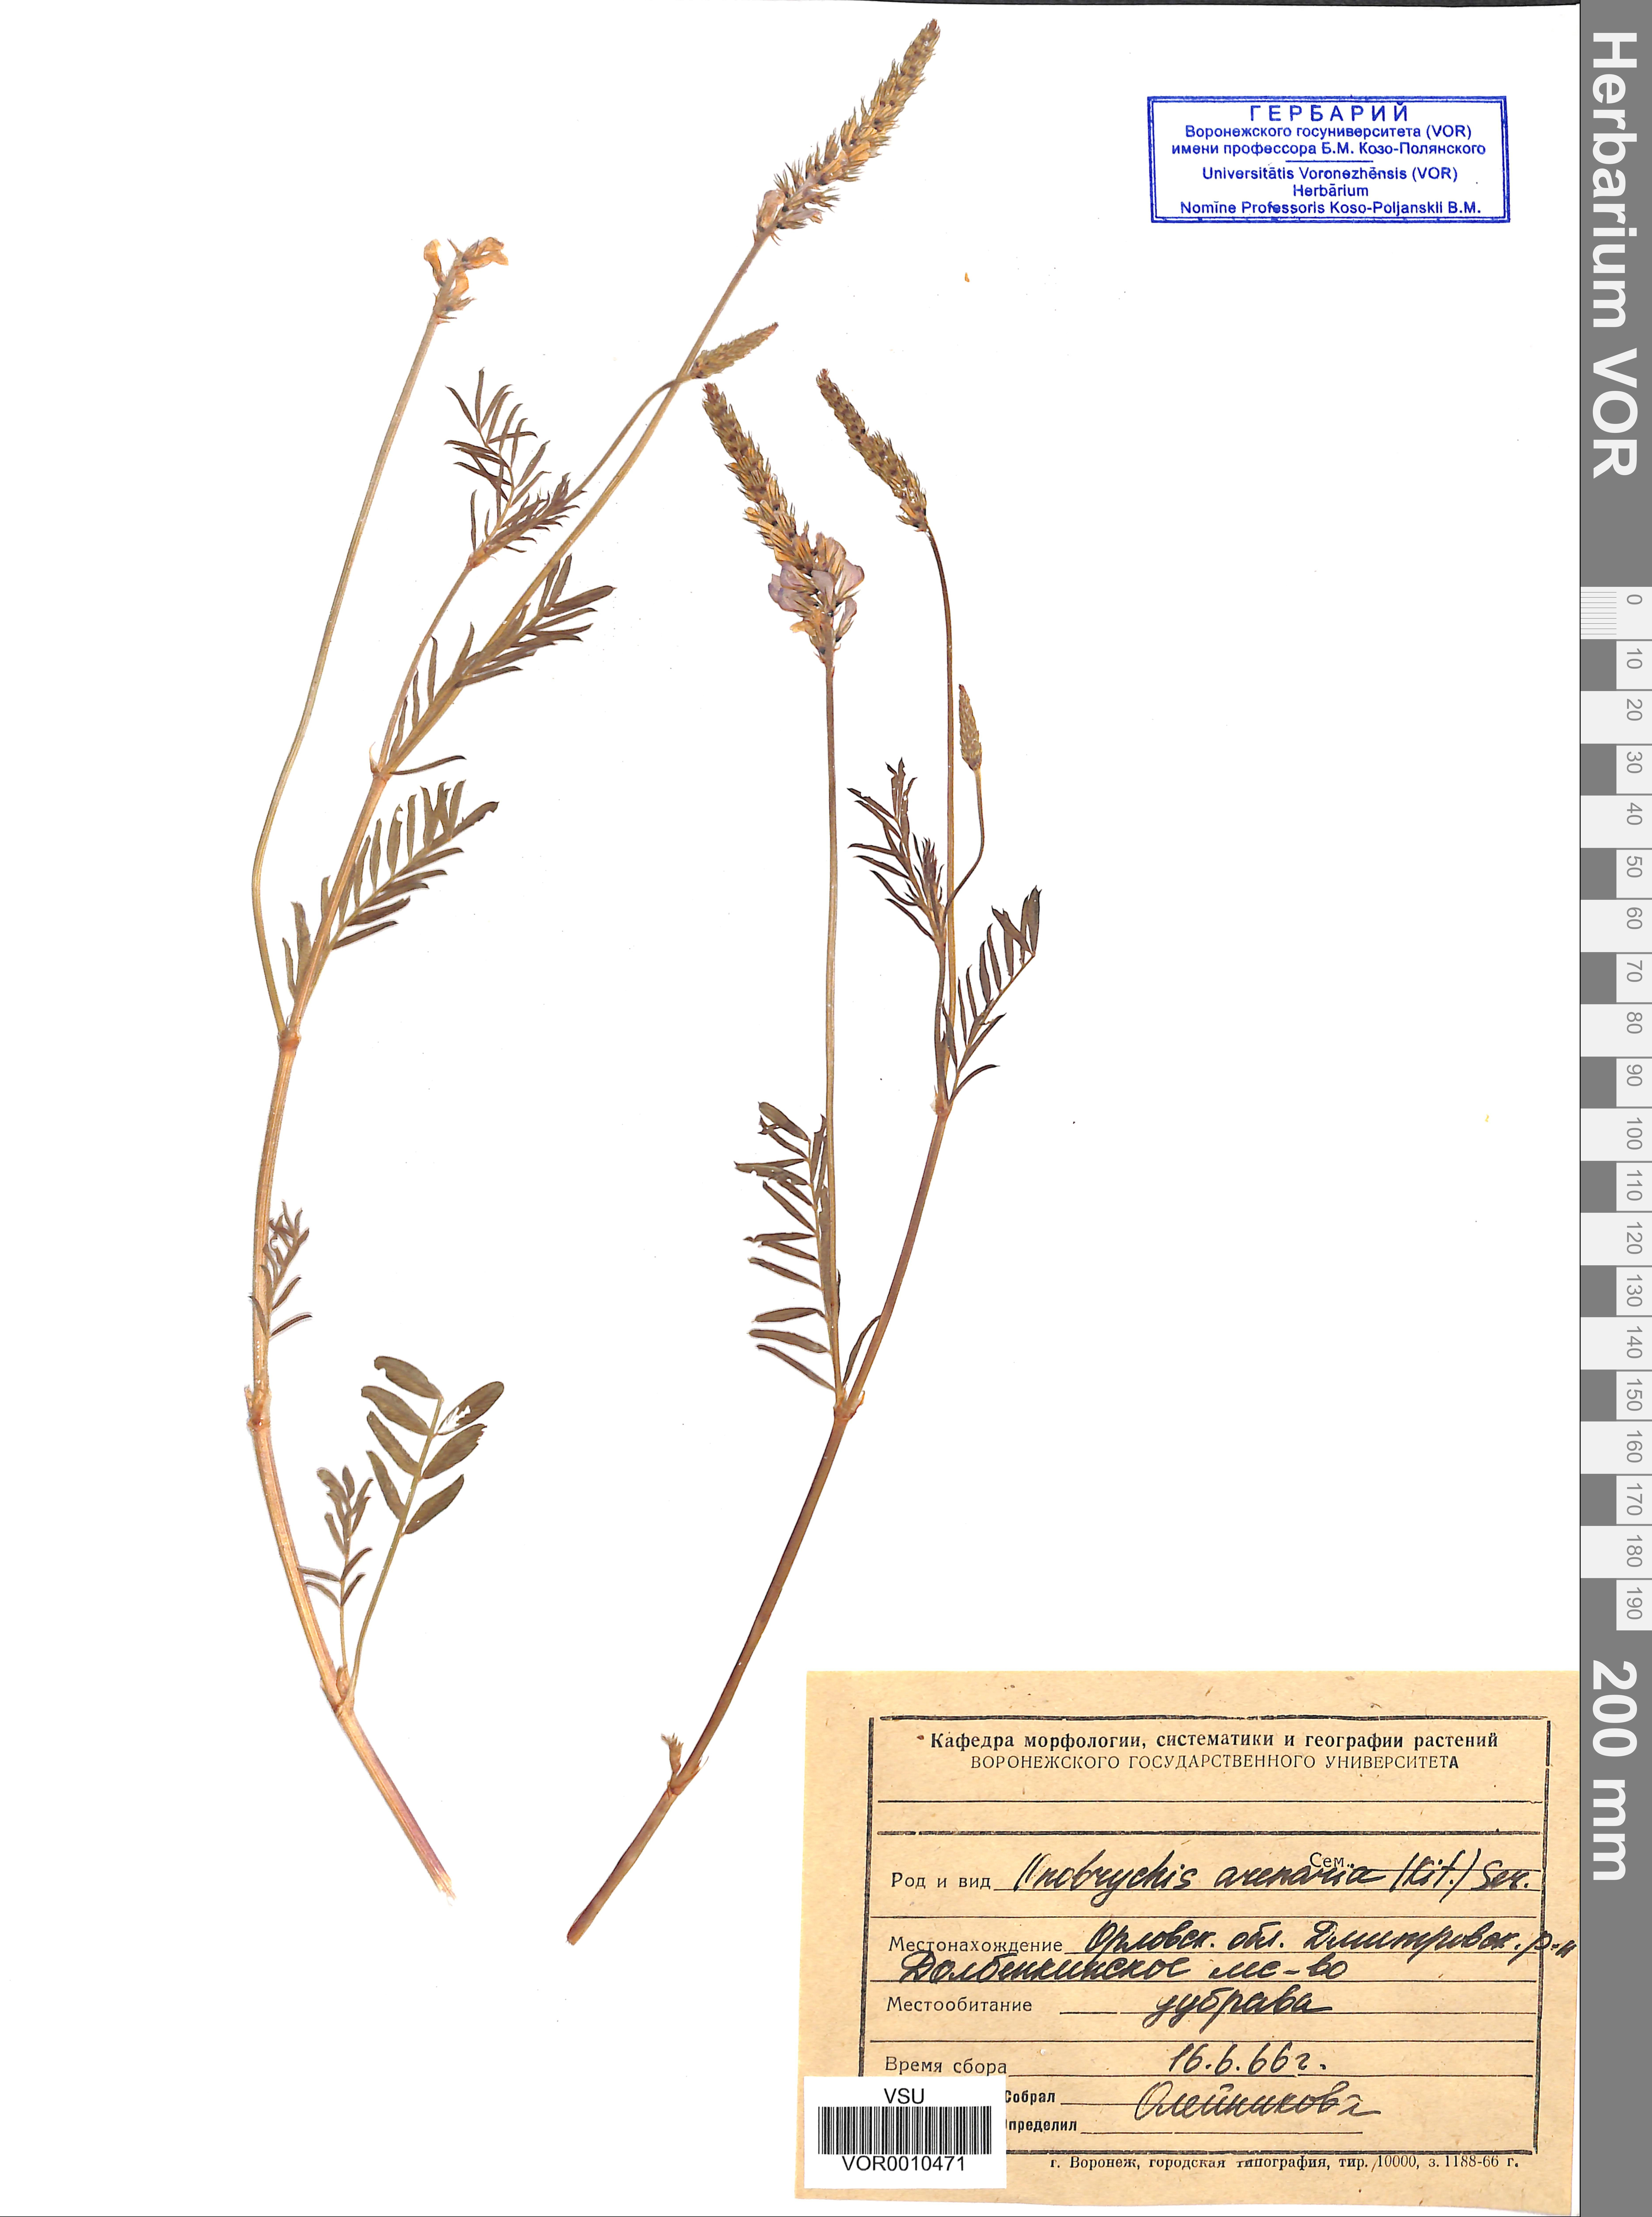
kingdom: Plantae
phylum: Tracheophyta
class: Magnoliopsida
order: Fabales
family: Fabaceae
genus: Onobrychis
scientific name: Onobrychis arenaria
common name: Sand esparcet
